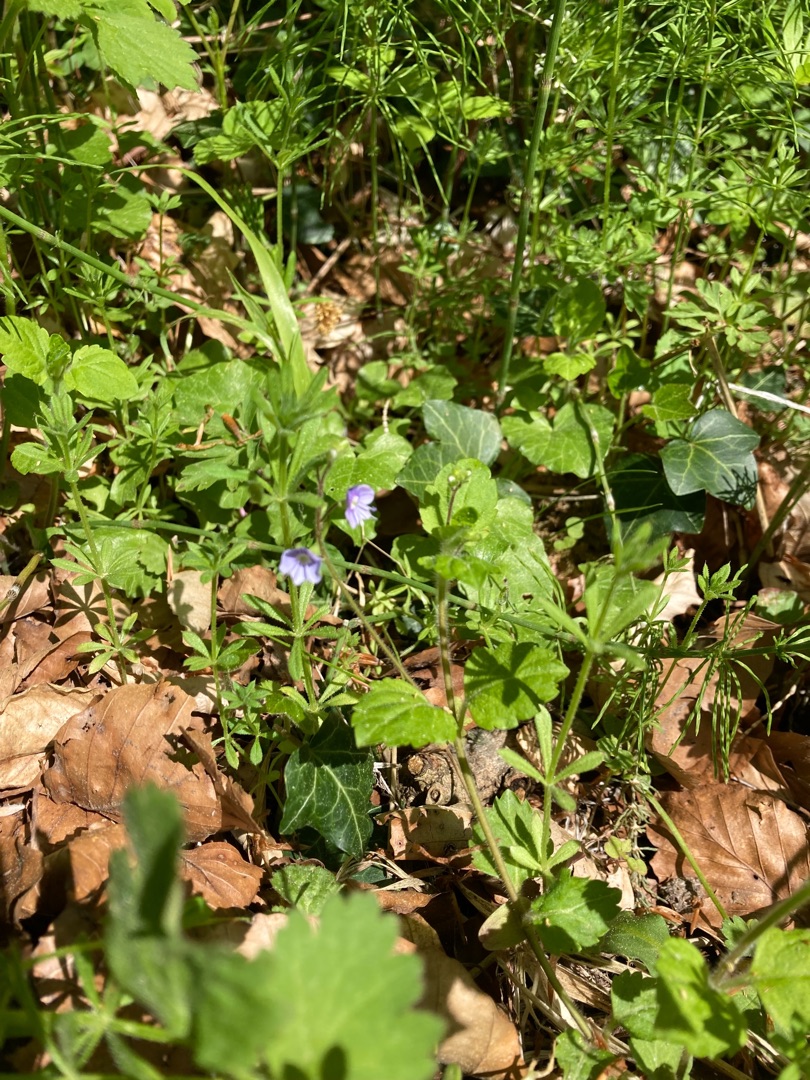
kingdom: Plantae
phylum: Tracheophyta
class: Magnoliopsida
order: Lamiales
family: Plantaginaceae
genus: Veronica
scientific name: Veronica montana
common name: Bjerg-ærenpris
